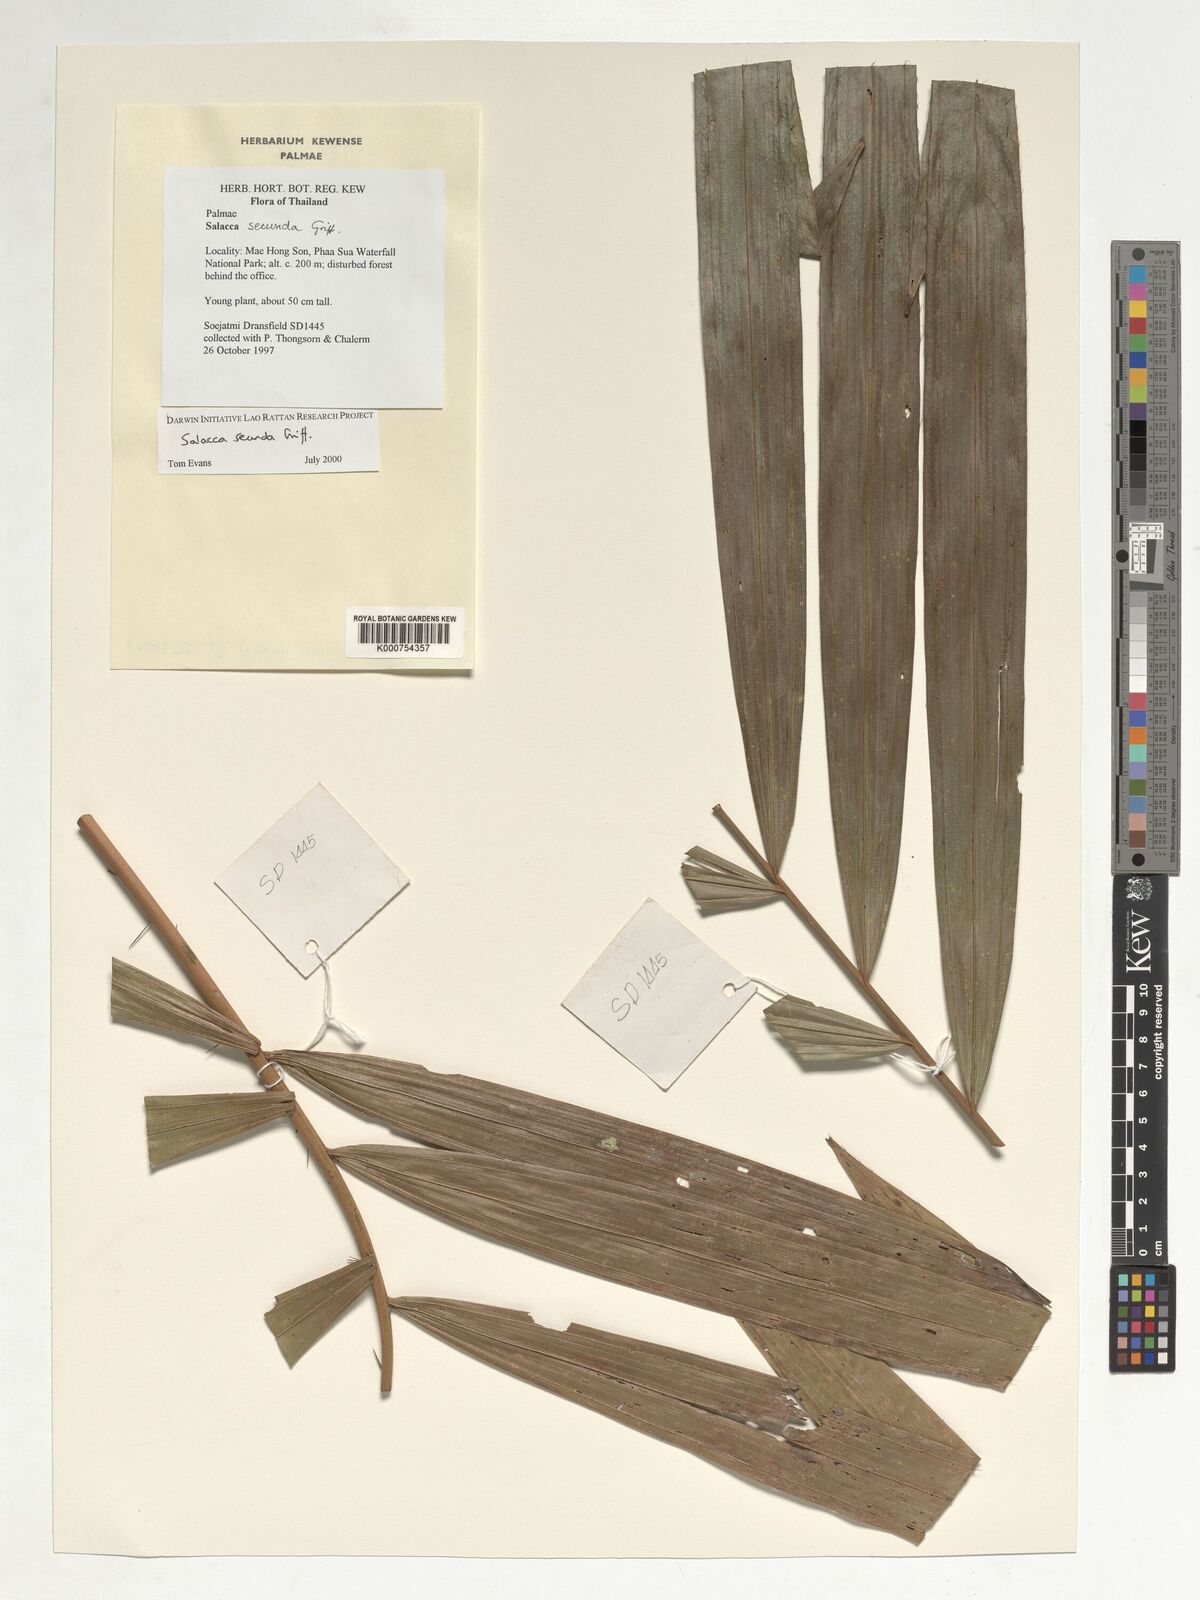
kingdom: Plantae
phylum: Tracheophyta
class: Liliopsida
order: Arecales
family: Arecaceae
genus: Salacca
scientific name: Salacca secunda
